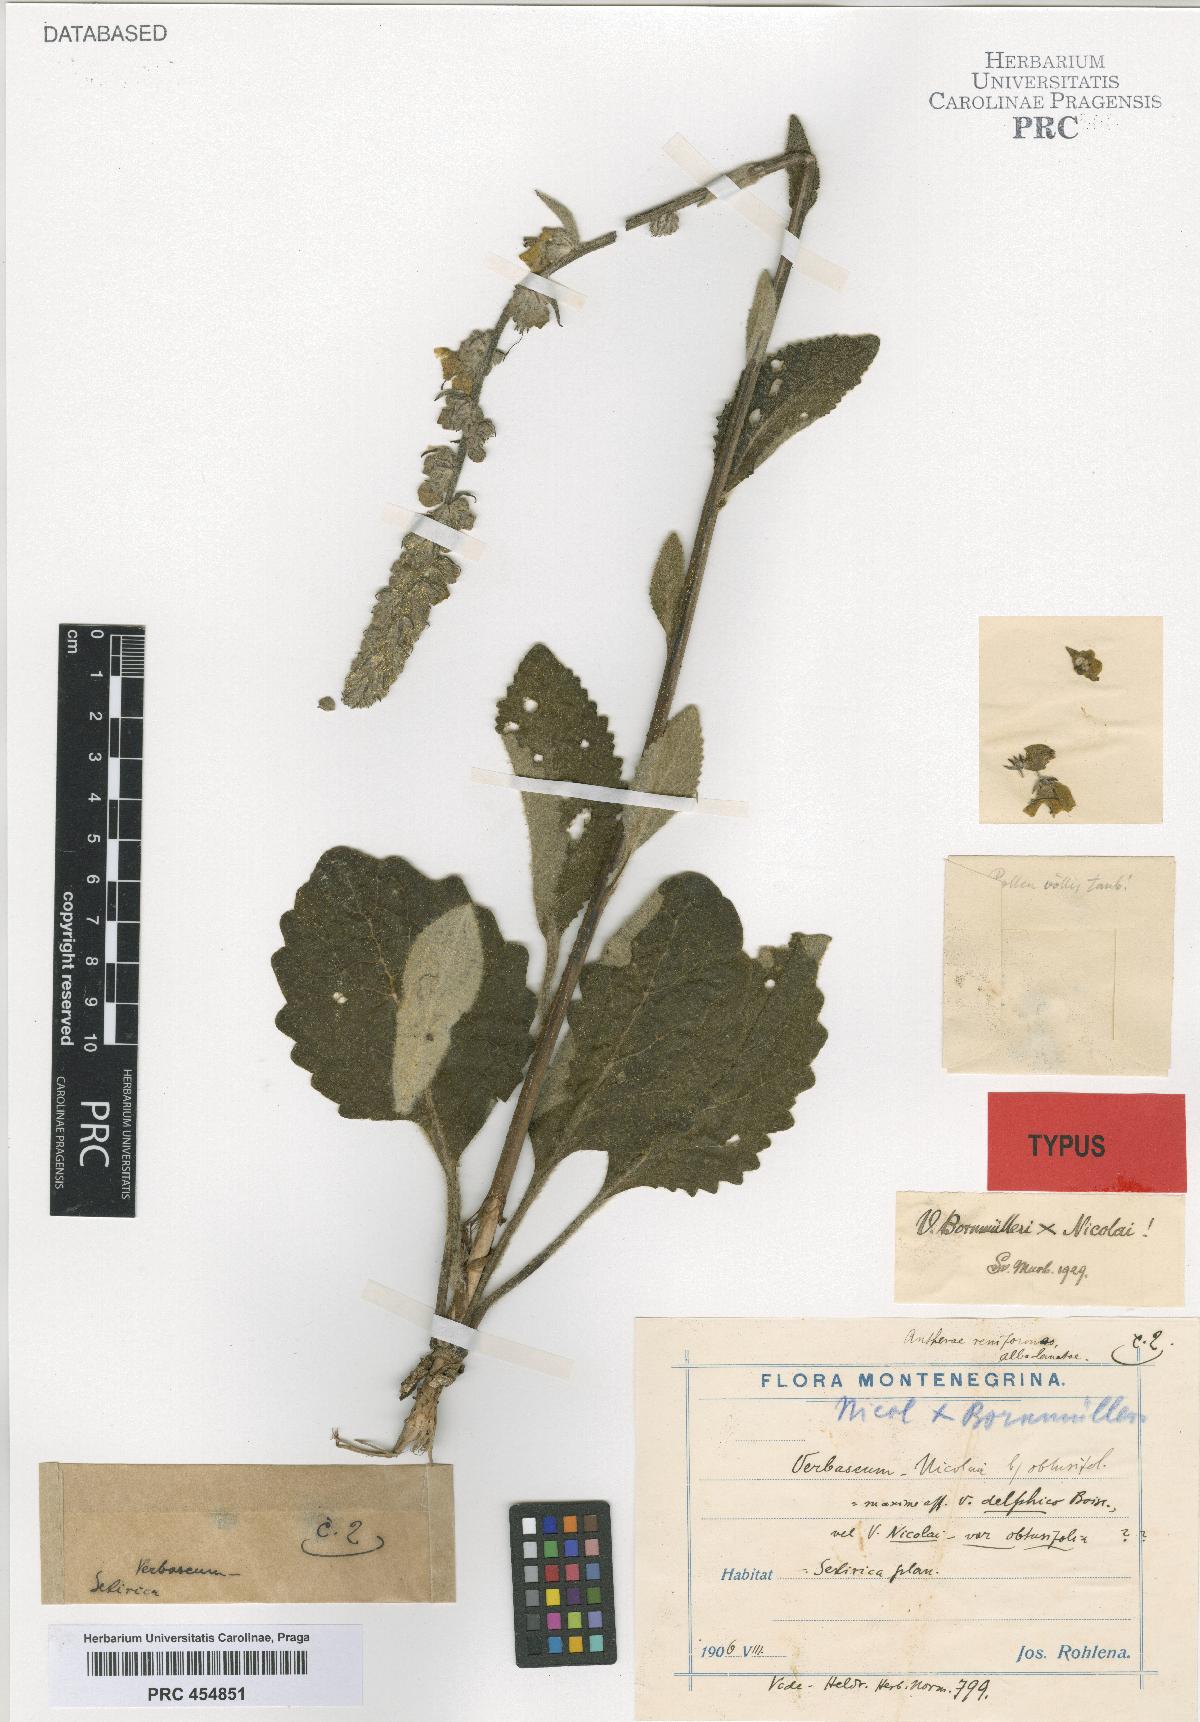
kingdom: Plantae
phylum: Tracheophyta
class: Magnoliopsida
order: Lamiales
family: Scrophulariaceae
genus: Verbascum
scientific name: Verbascum nicolai
